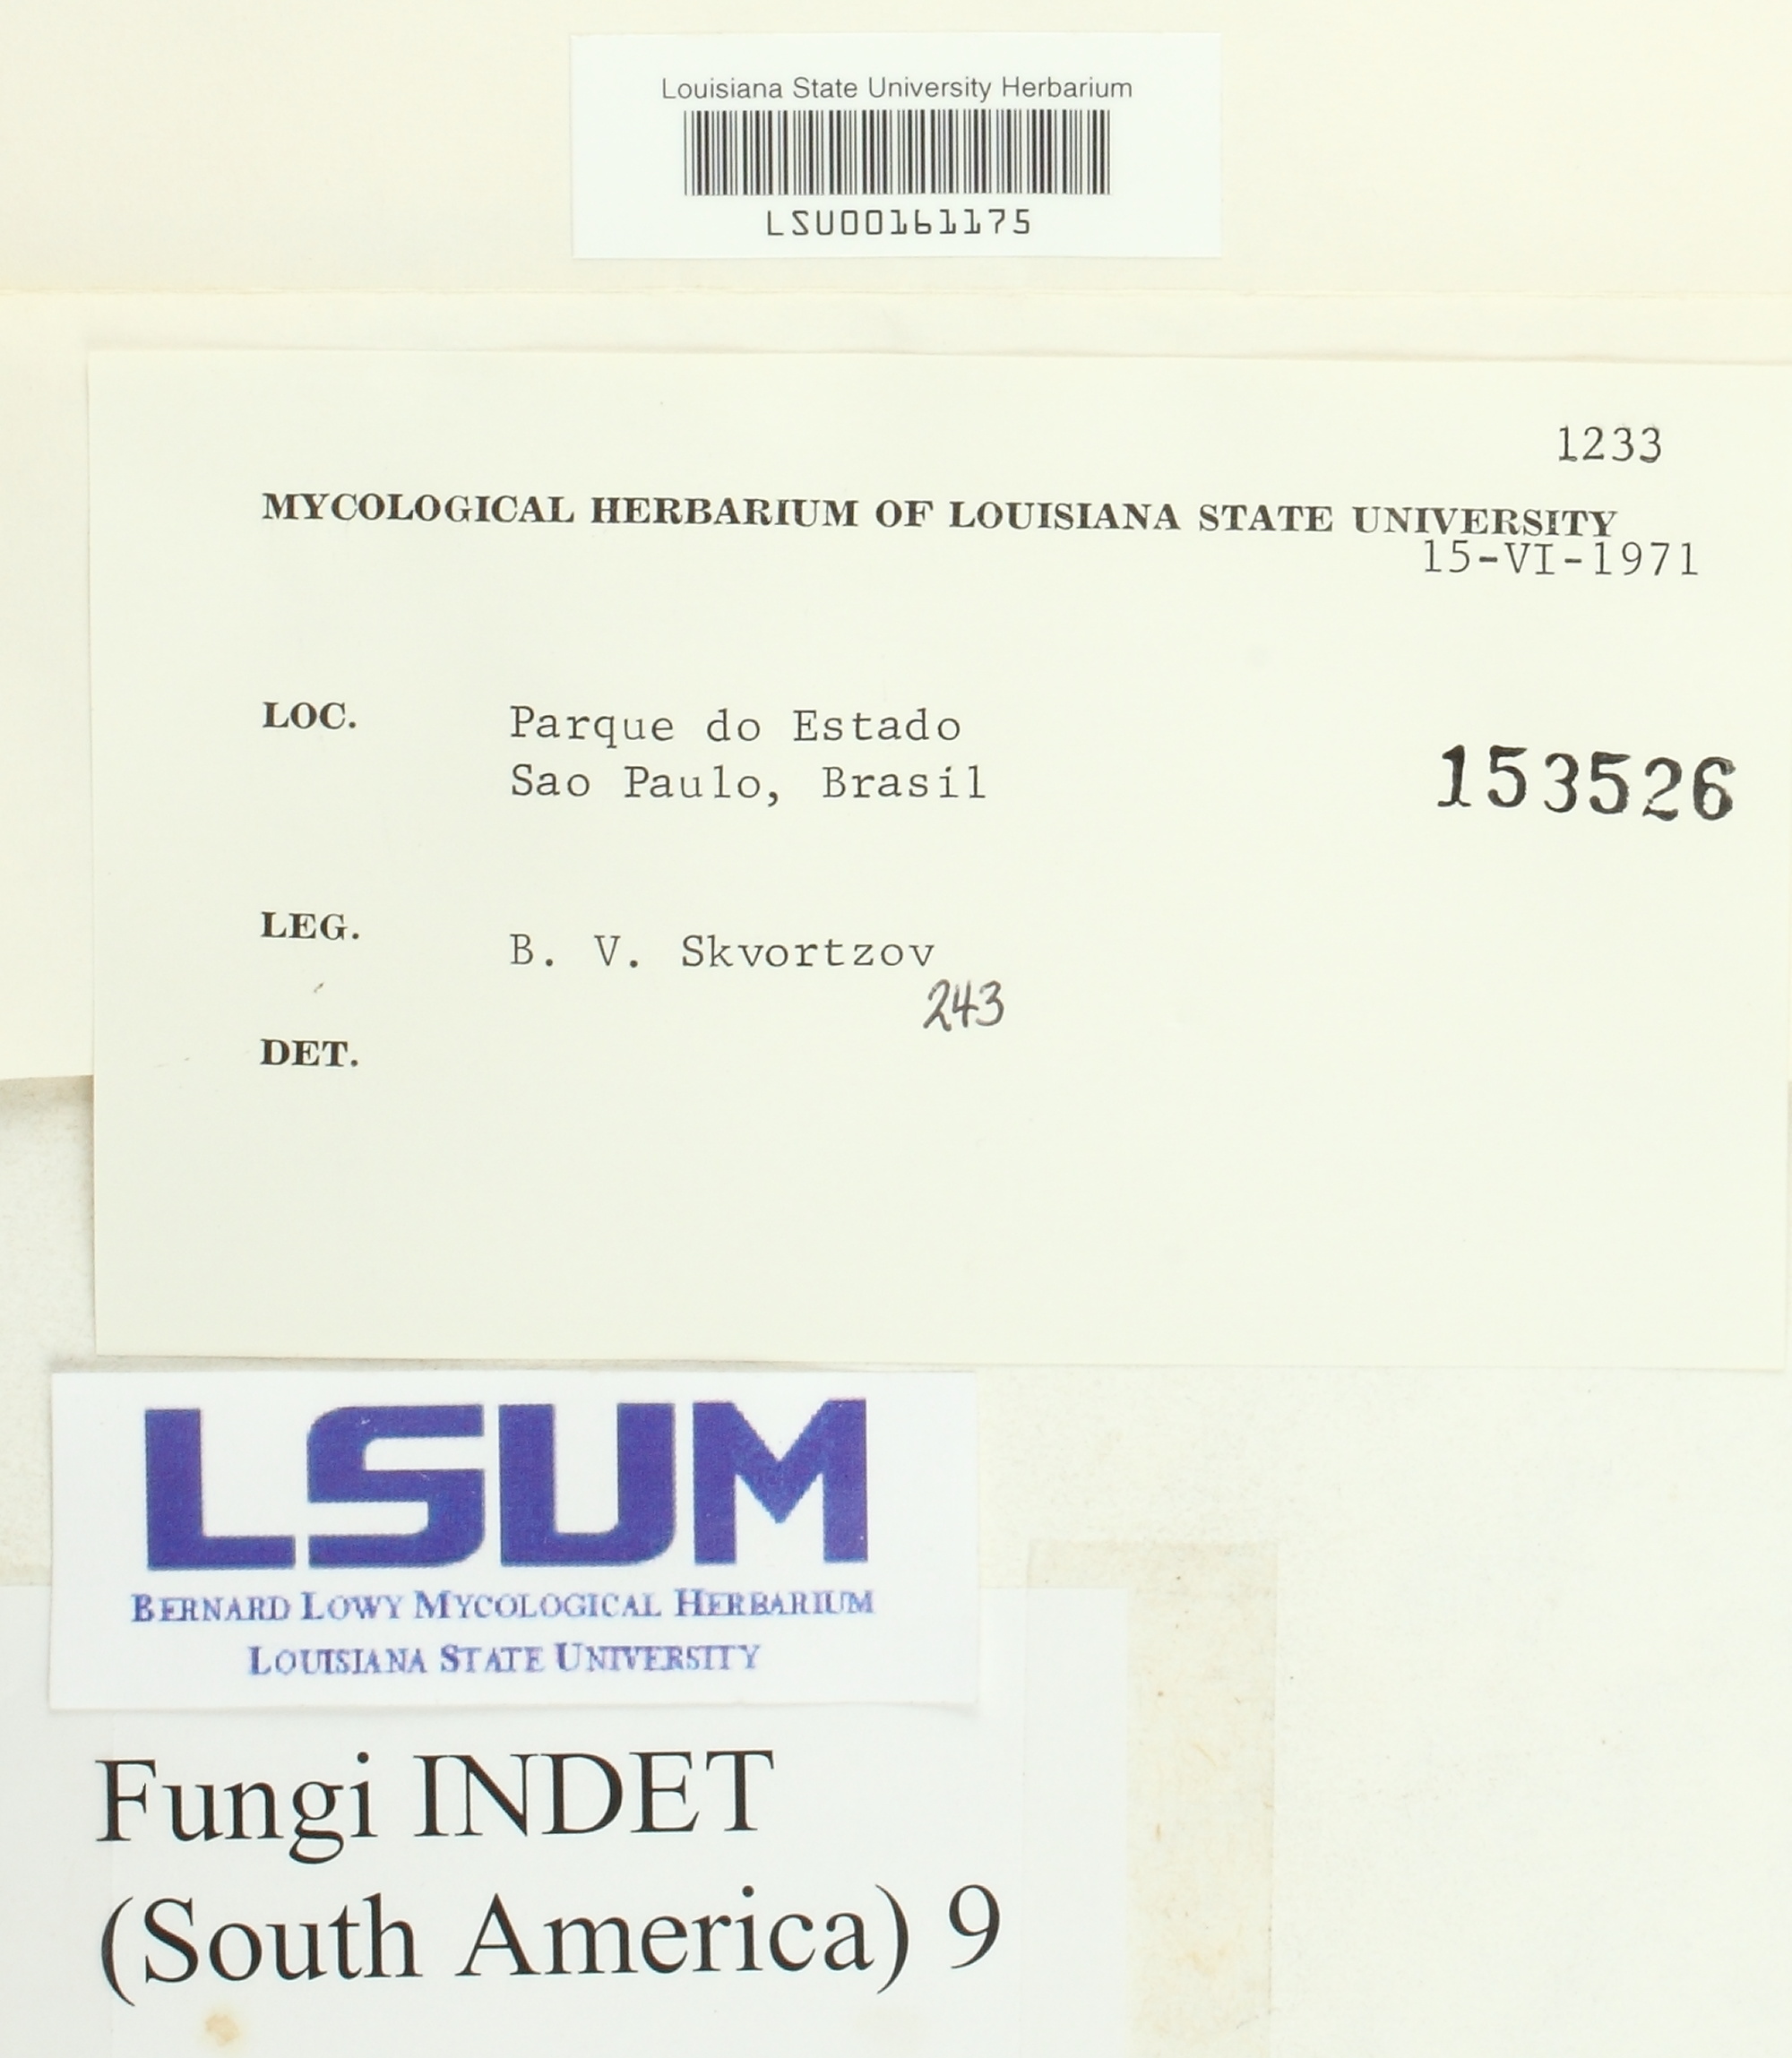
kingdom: Fungi
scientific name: Fungi
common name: Fungi
